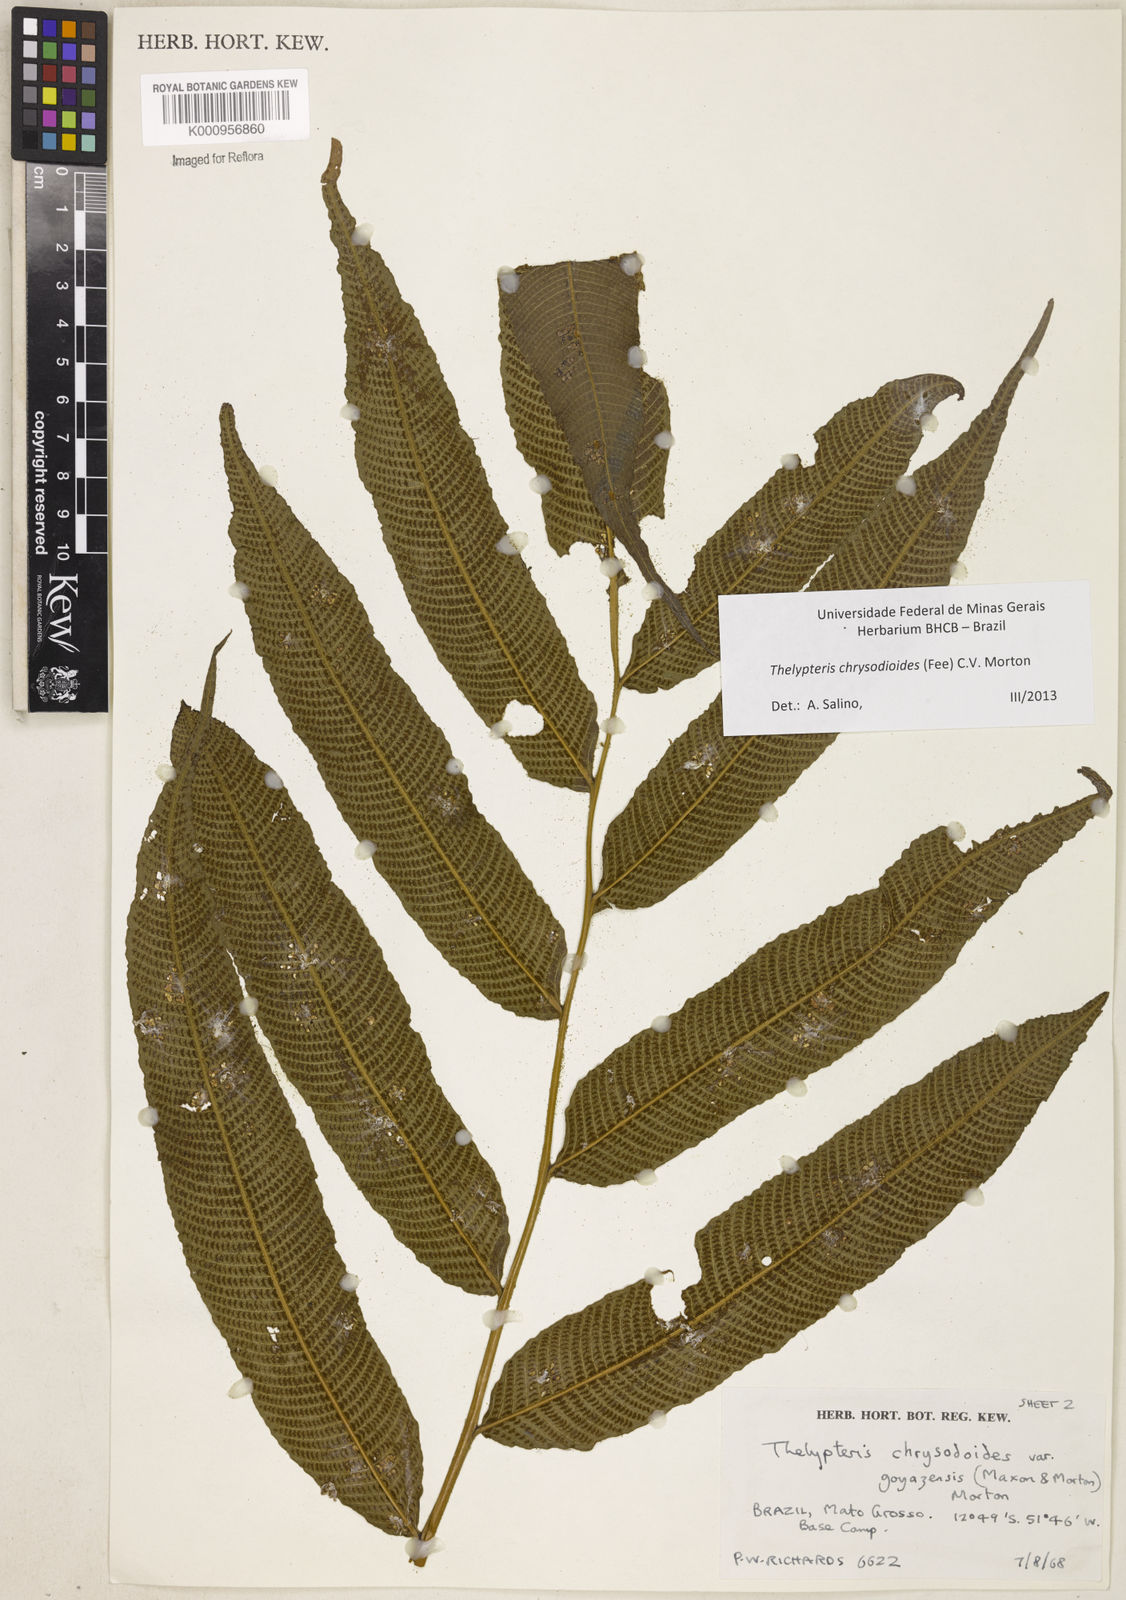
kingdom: Plantae
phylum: Tracheophyta
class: Polypodiopsida
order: Polypodiales
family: Thelypteridaceae
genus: Meniscium
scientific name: Meniscium
